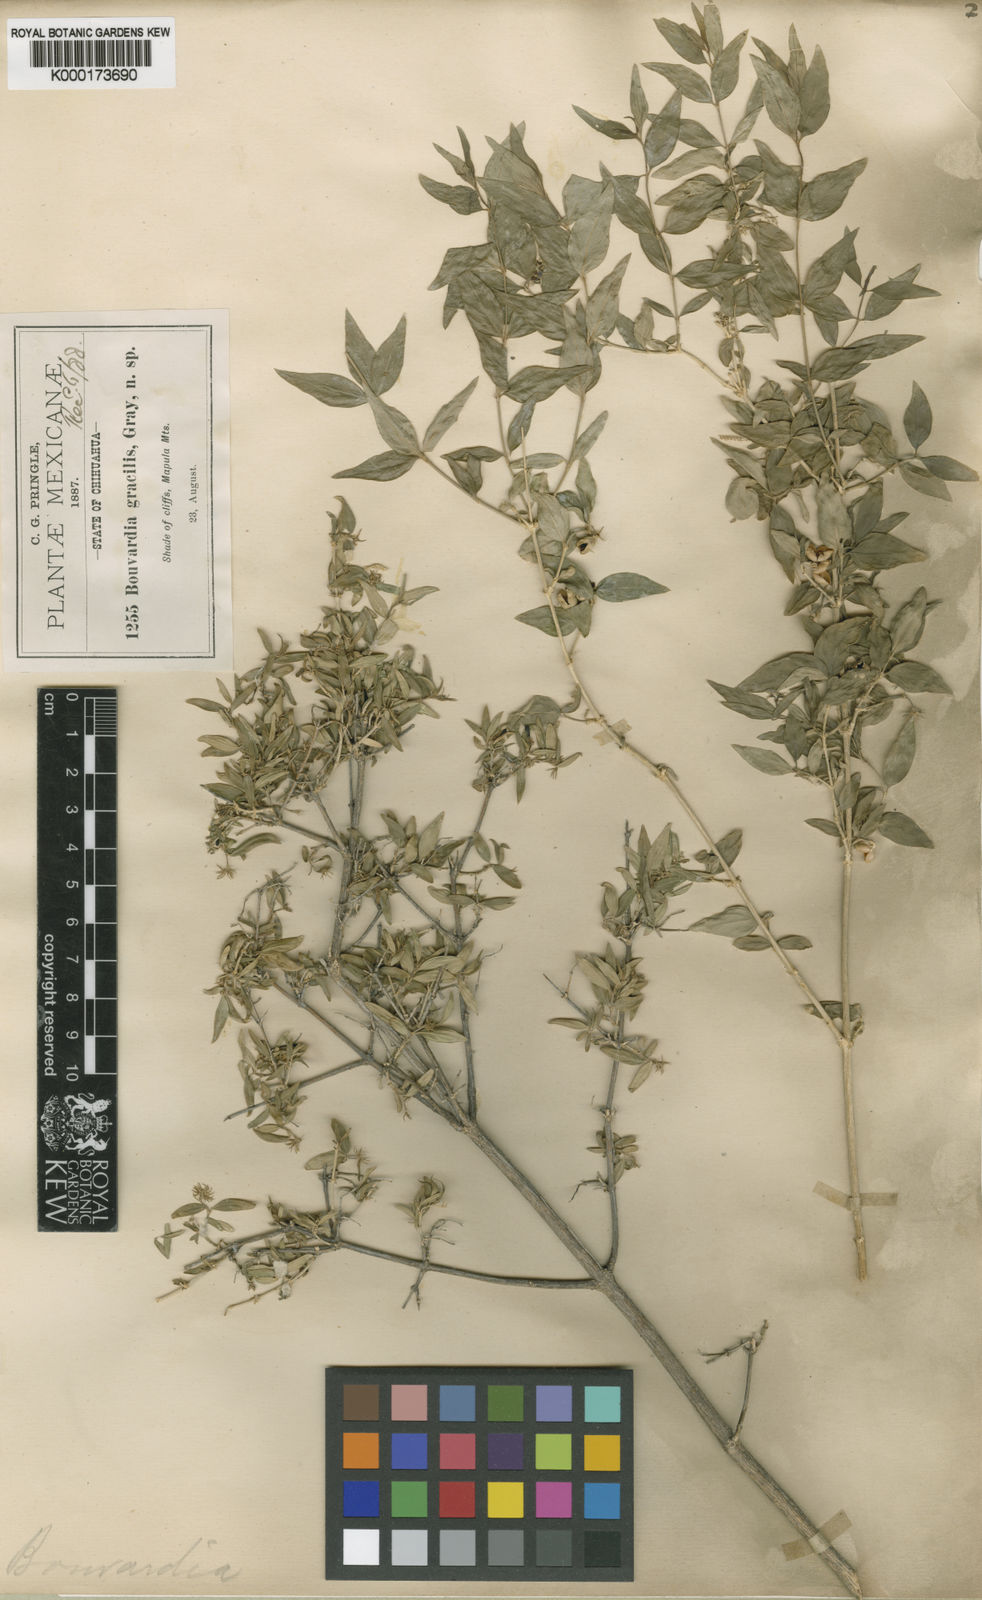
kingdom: Plantae
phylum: Tracheophyta
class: Magnoliopsida
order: Gentianales
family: Rubiaceae
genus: Bouvardia
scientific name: Bouvardia multiflora
